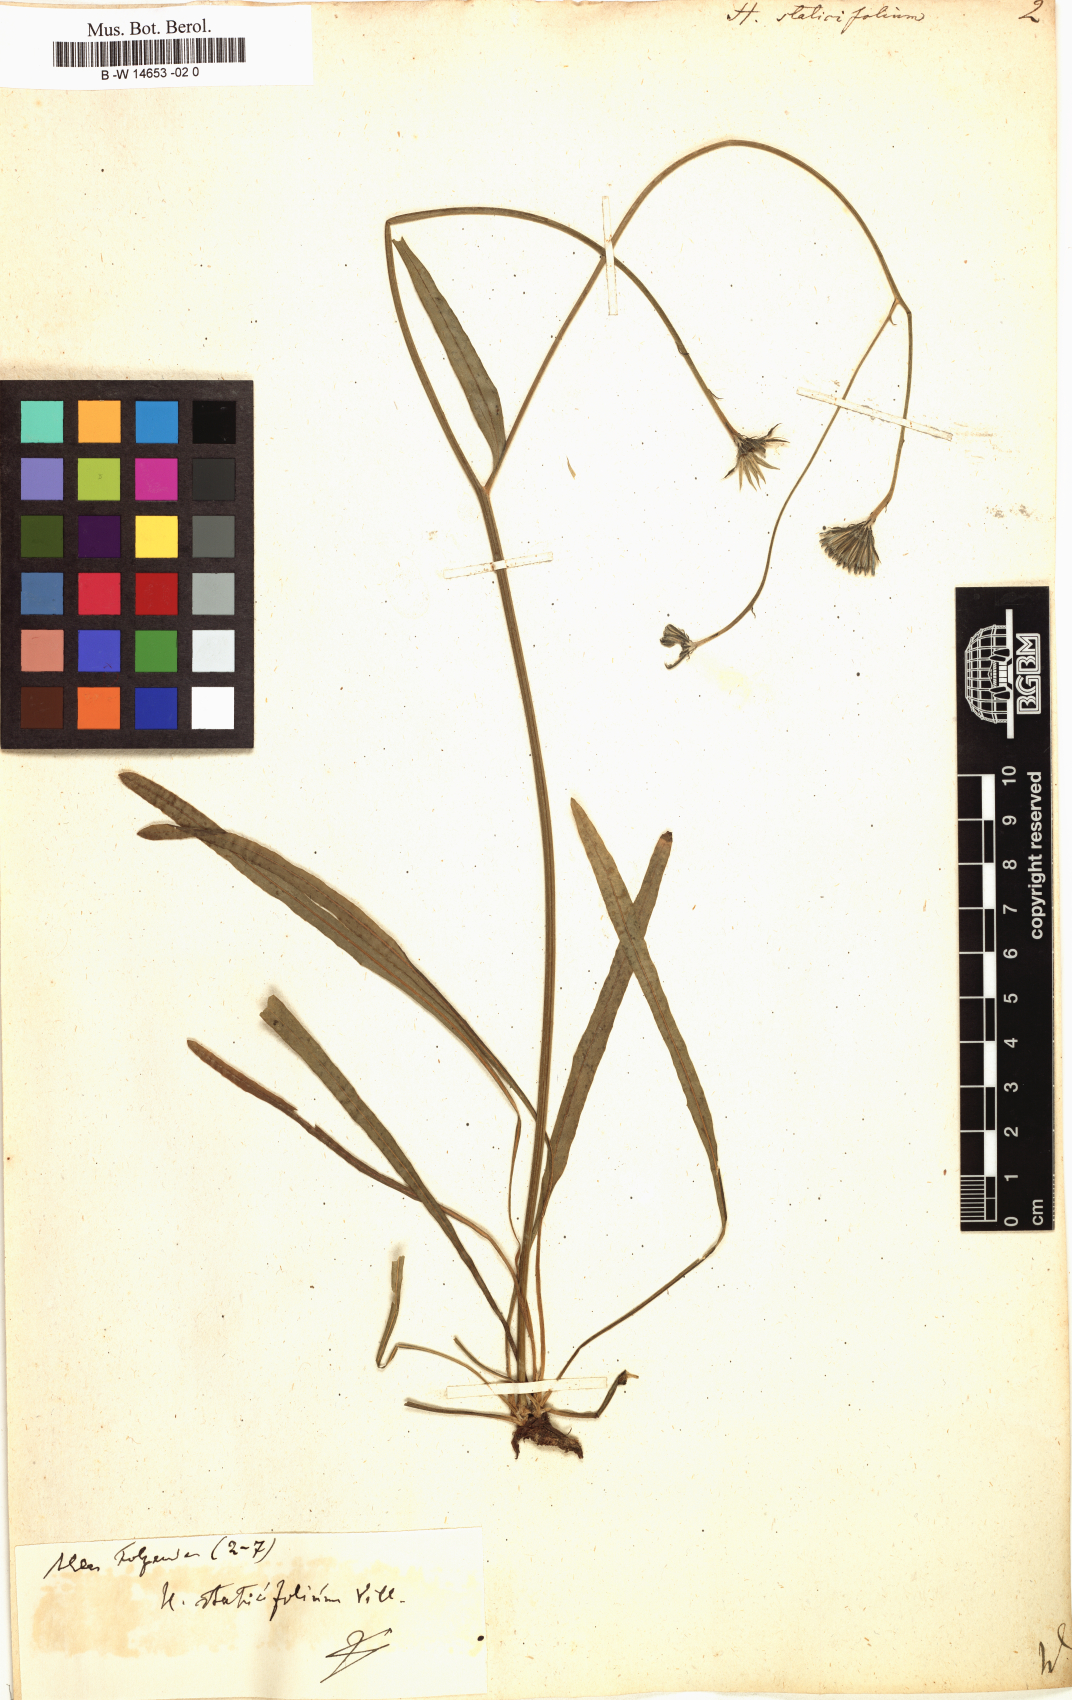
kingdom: Plantae
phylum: Tracheophyta
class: Magnoliopsida
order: Asterales
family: Asteraceae
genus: Hieracium
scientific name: Hieracium staticifolium
